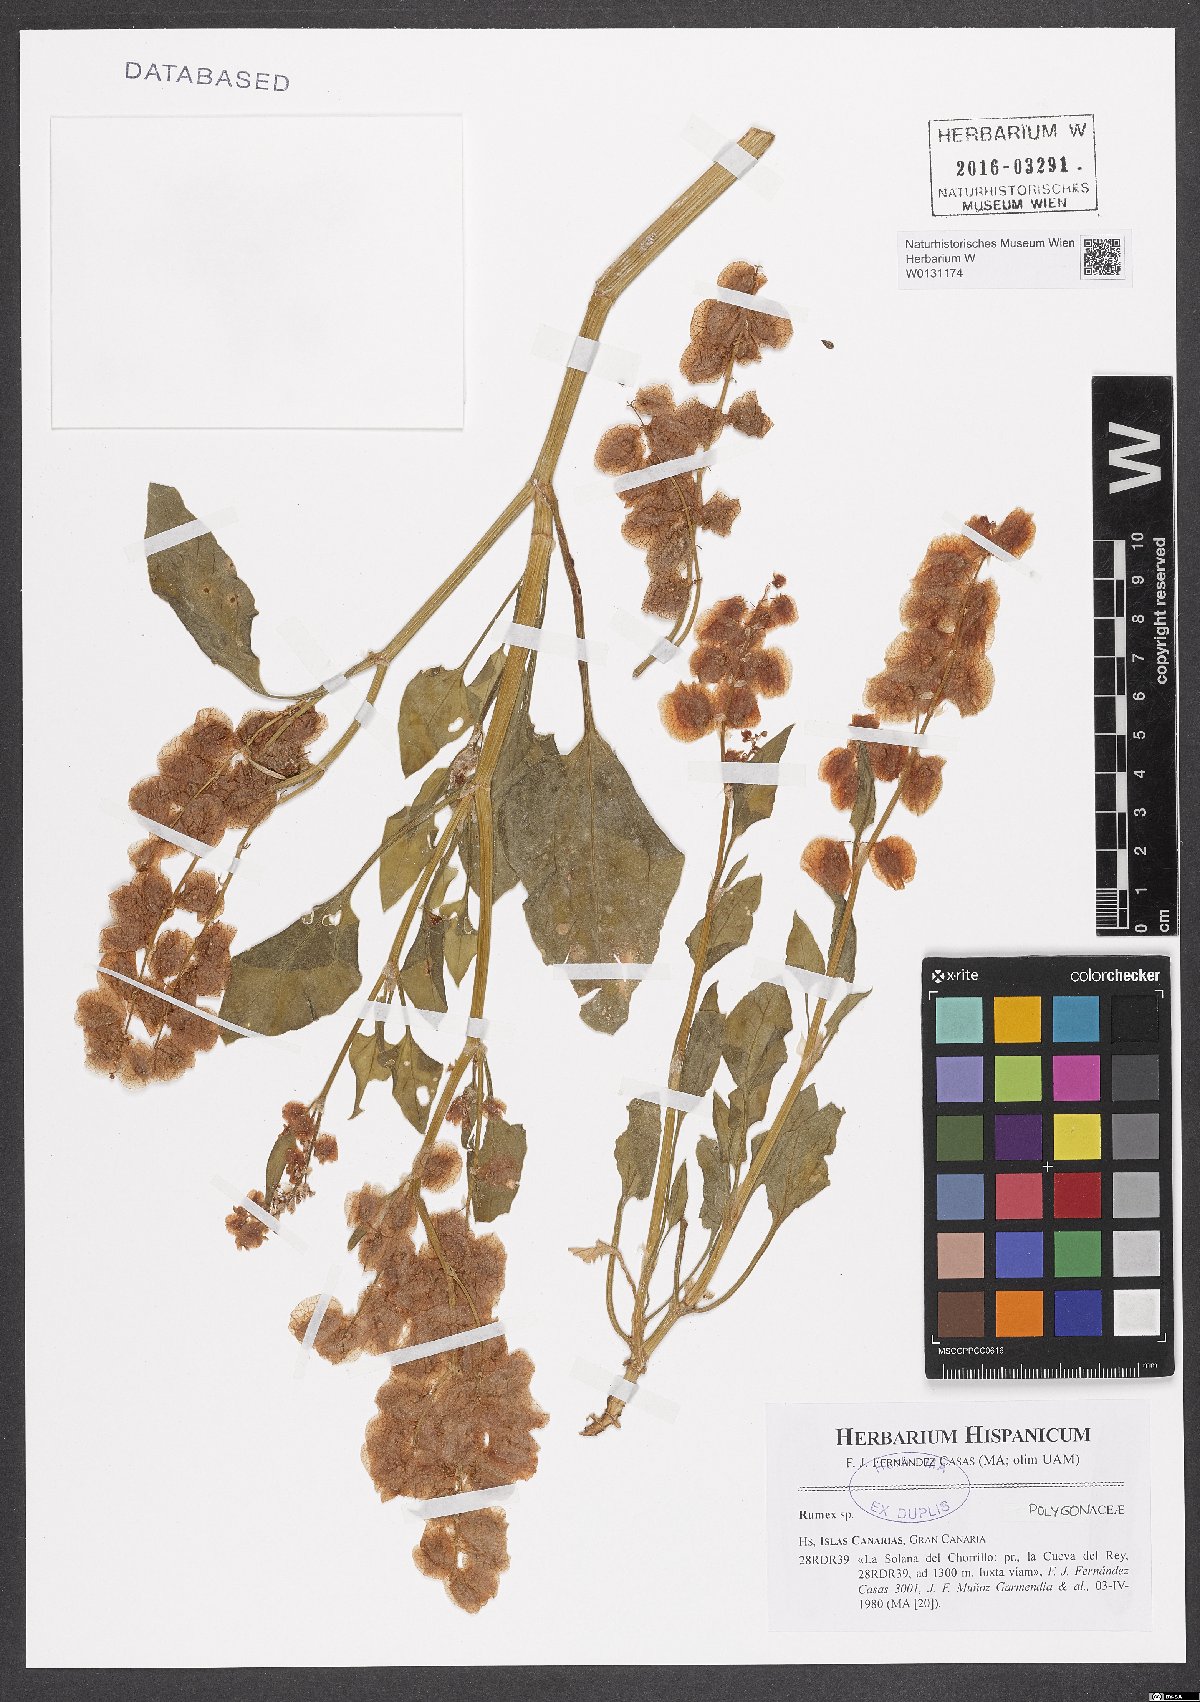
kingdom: Plantae
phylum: Tracheophyta
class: Magnoliopsida
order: Caryophyllales
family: Polygonaceae
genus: Rumex
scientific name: Rumex
